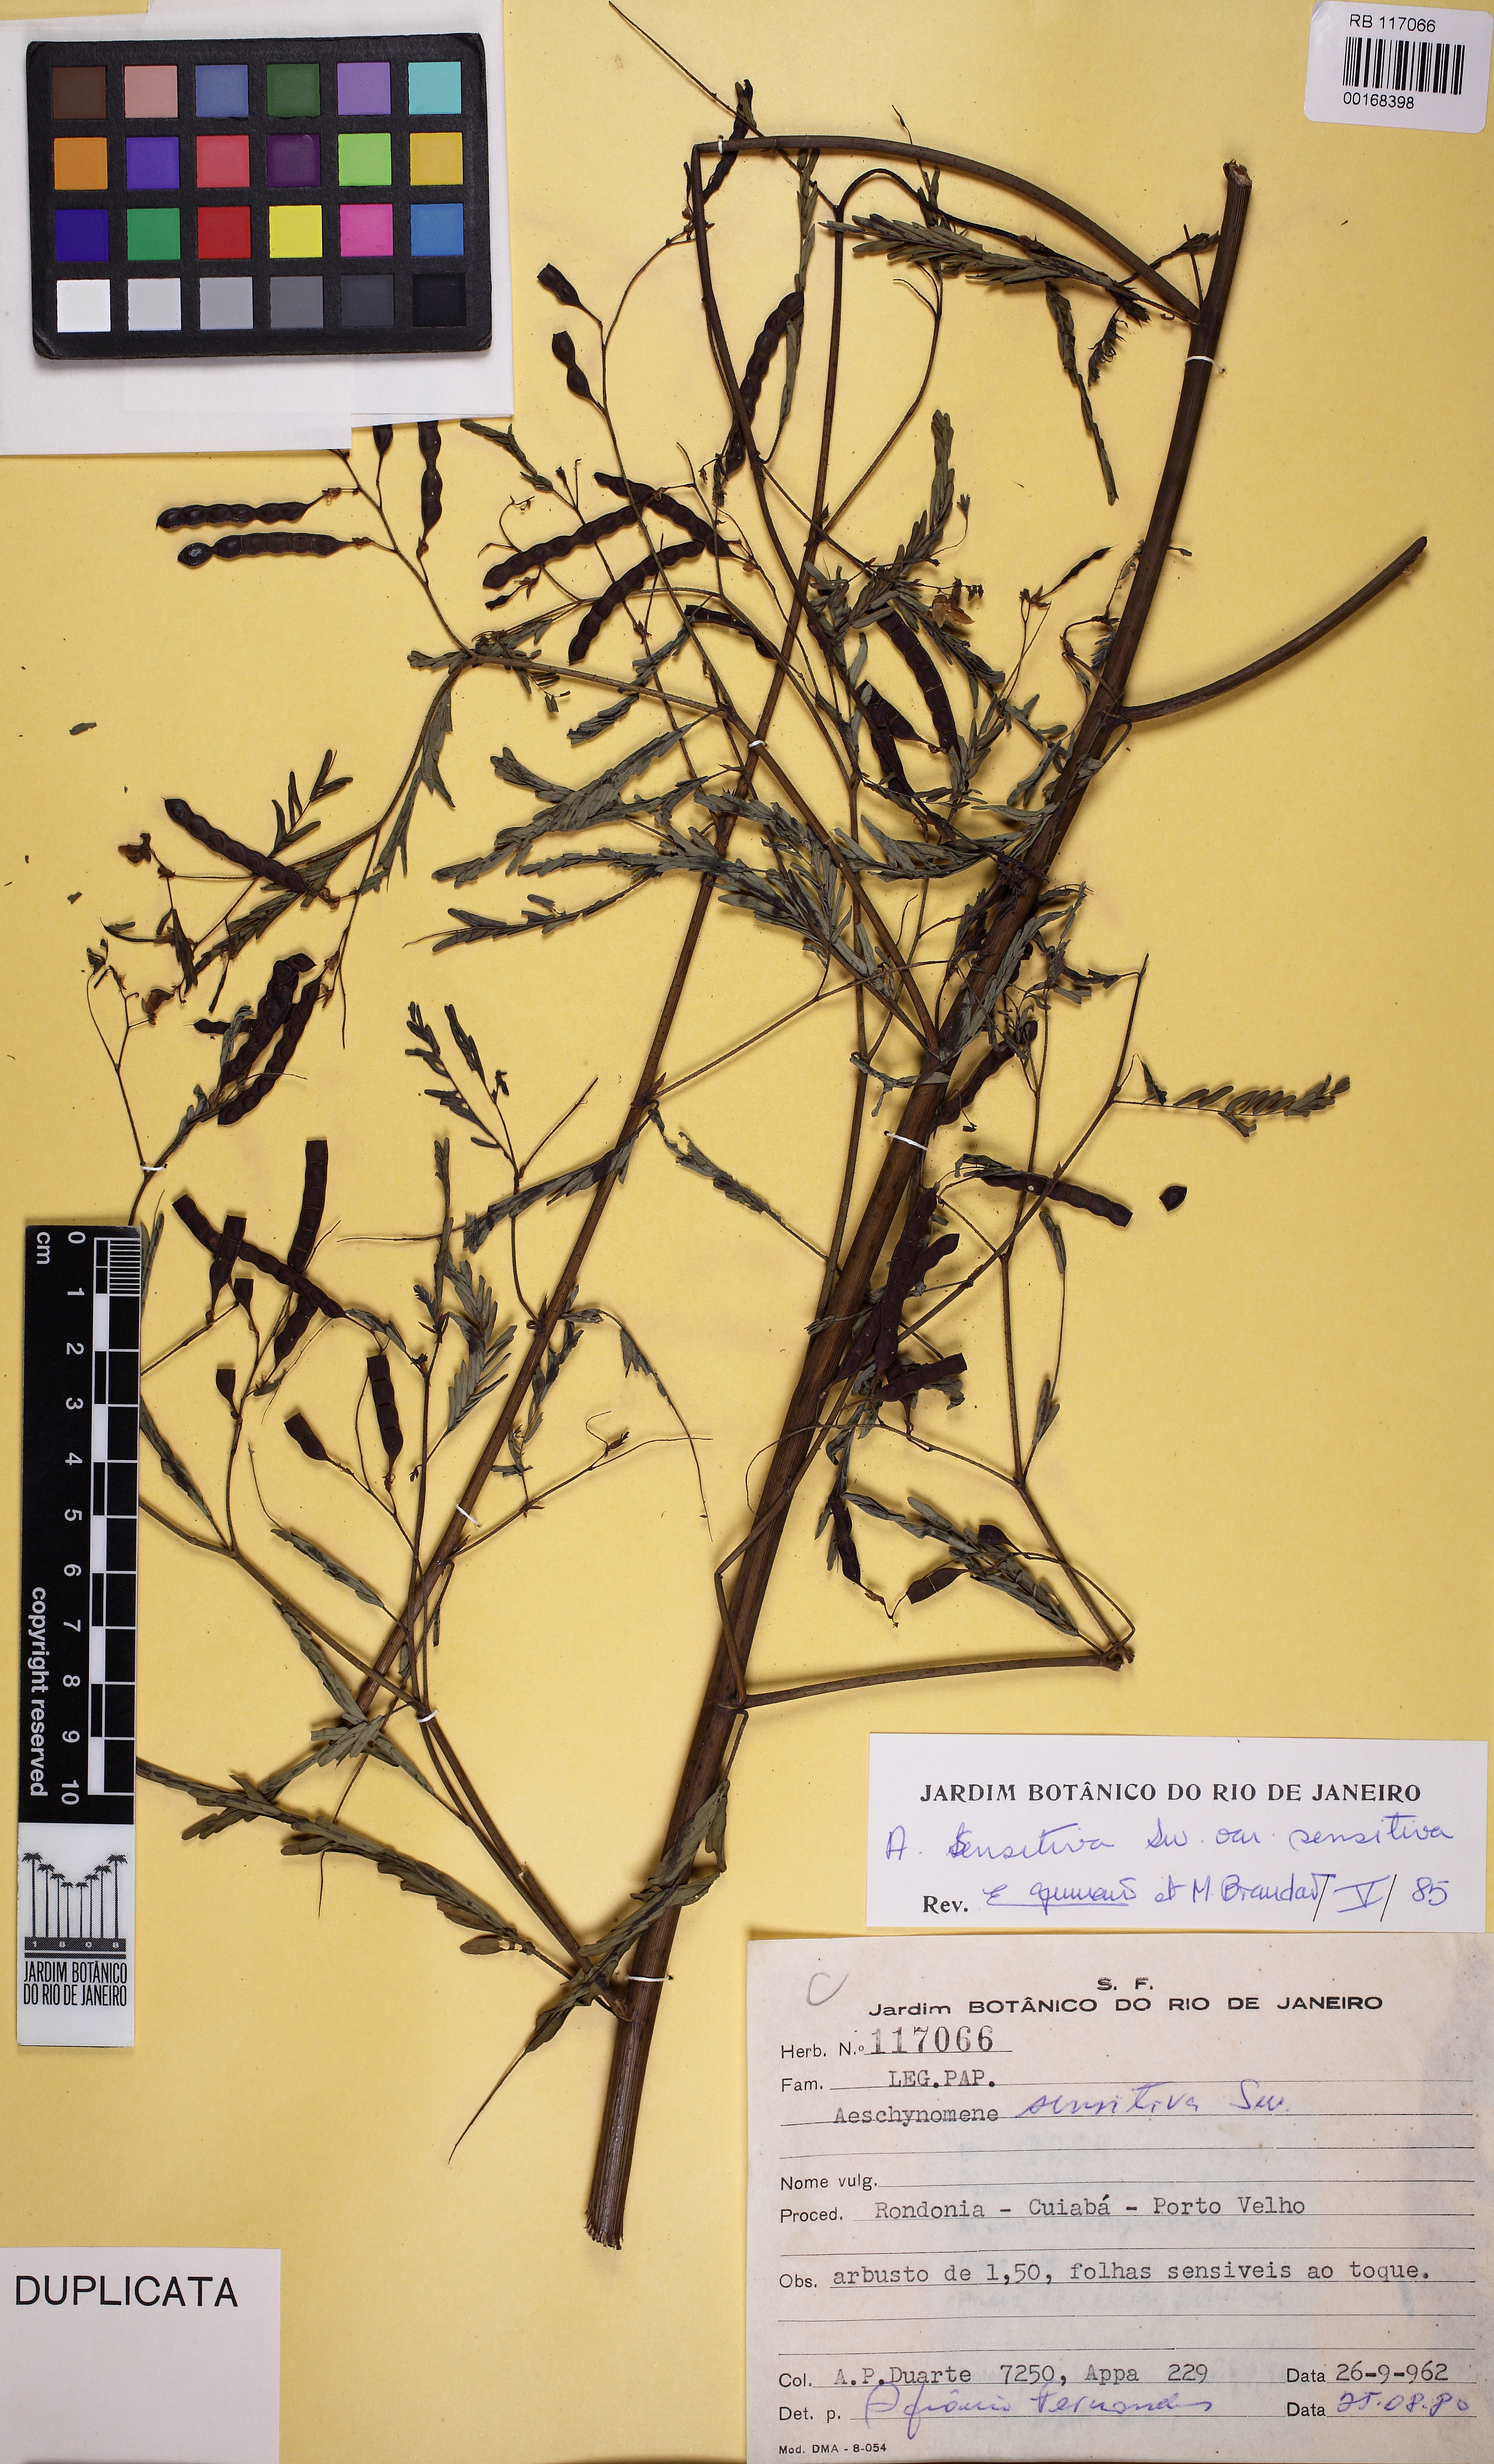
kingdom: Plantae
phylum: Tracheophyta
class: Magnoliopsida
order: Fabales
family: Fabaceae
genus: Aeschynomene
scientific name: Aeschynomene sensitiva
